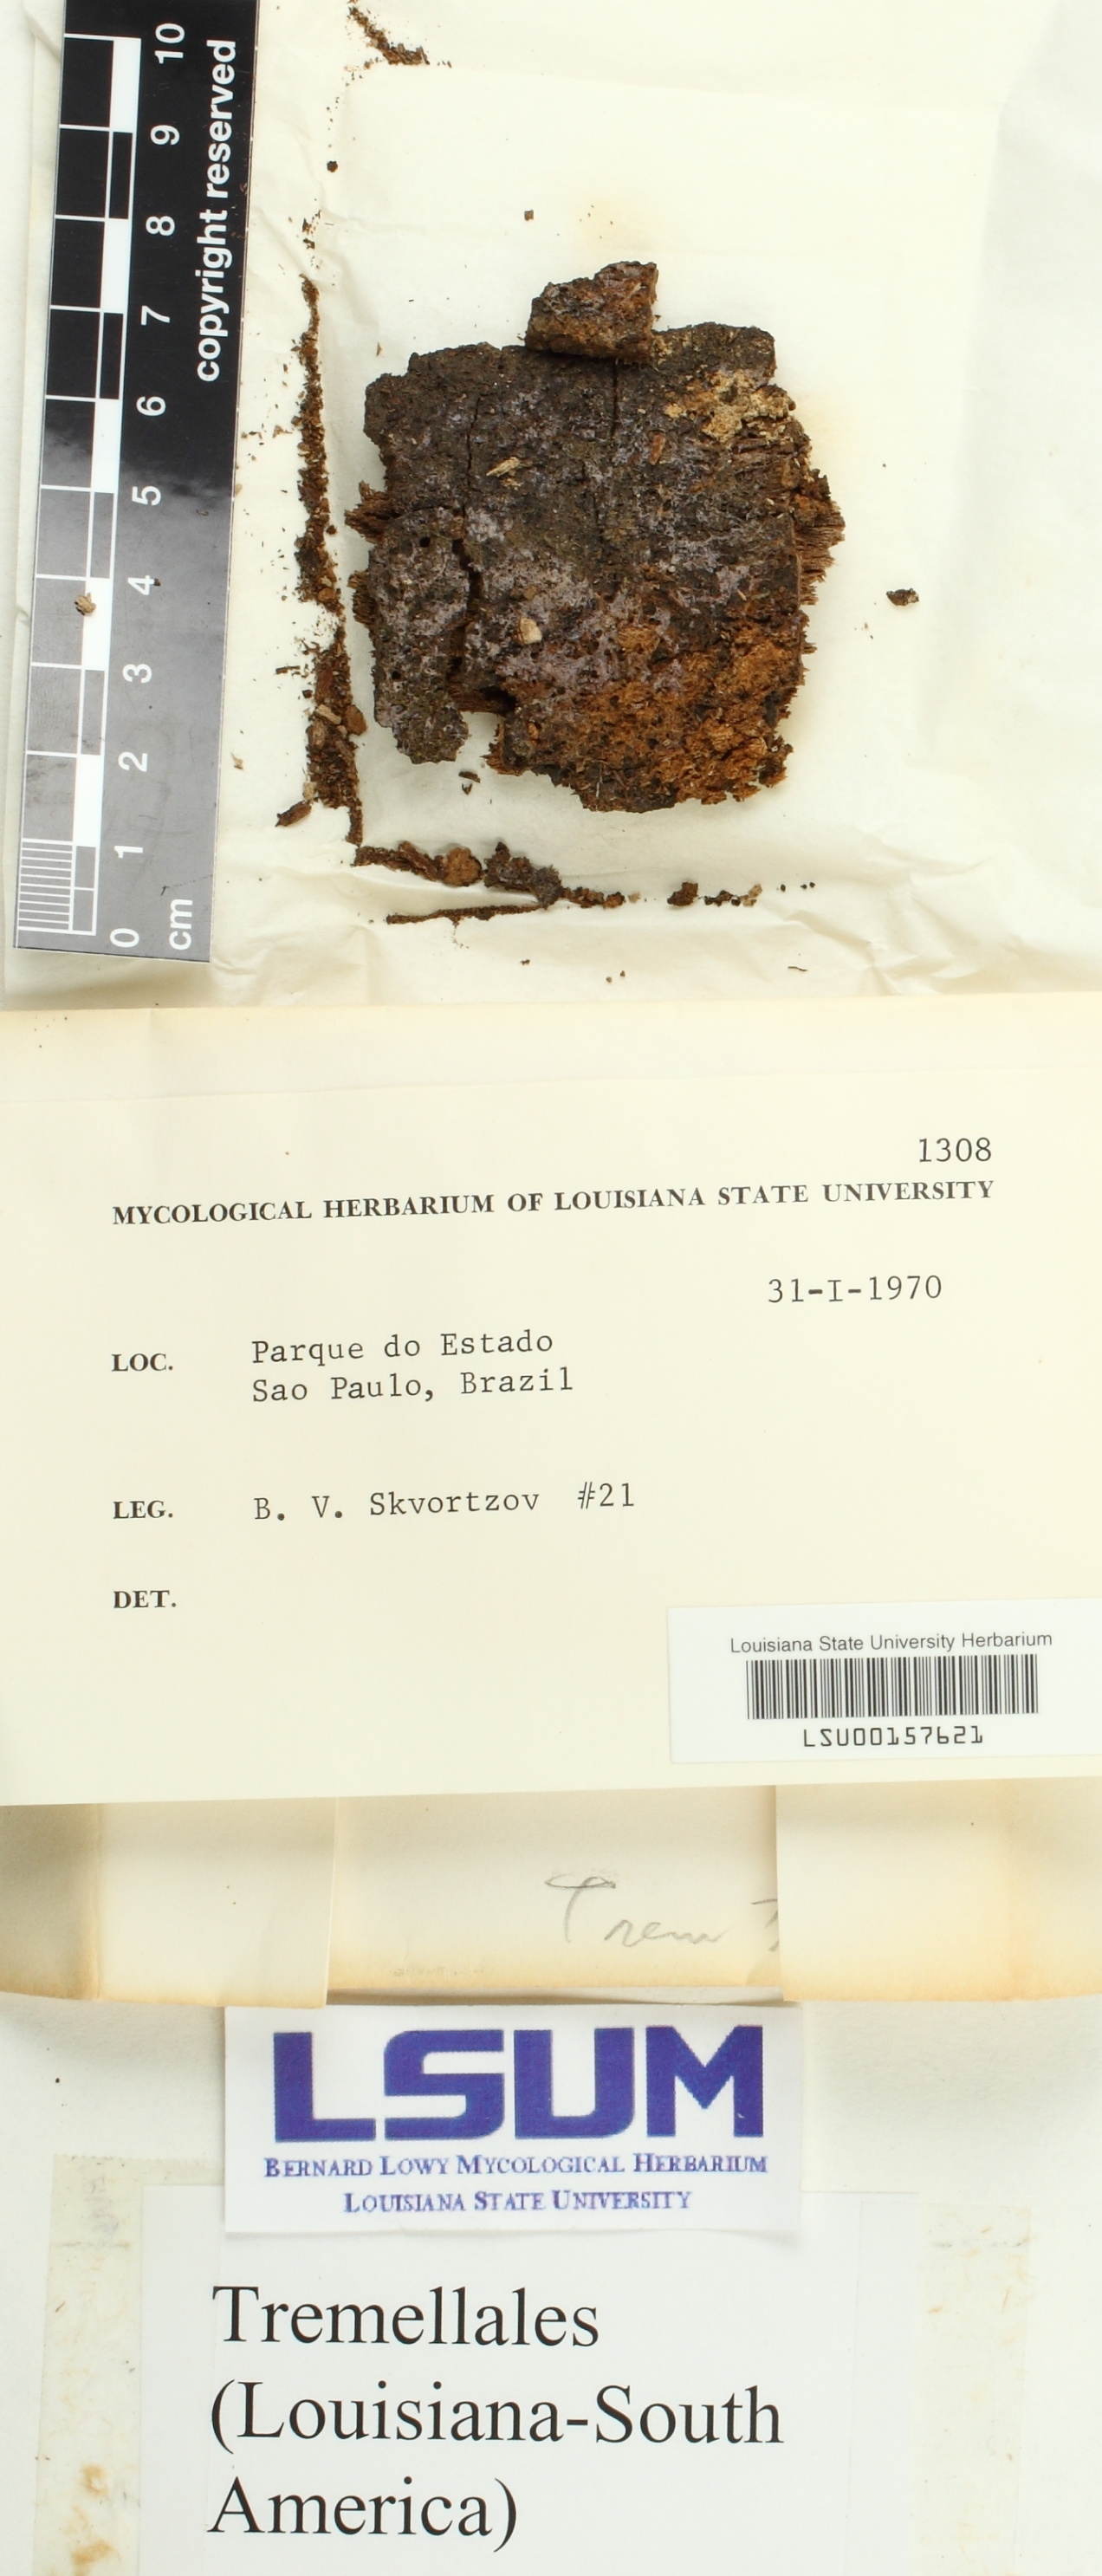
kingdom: Fungi
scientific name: Fungi
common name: Fungi
